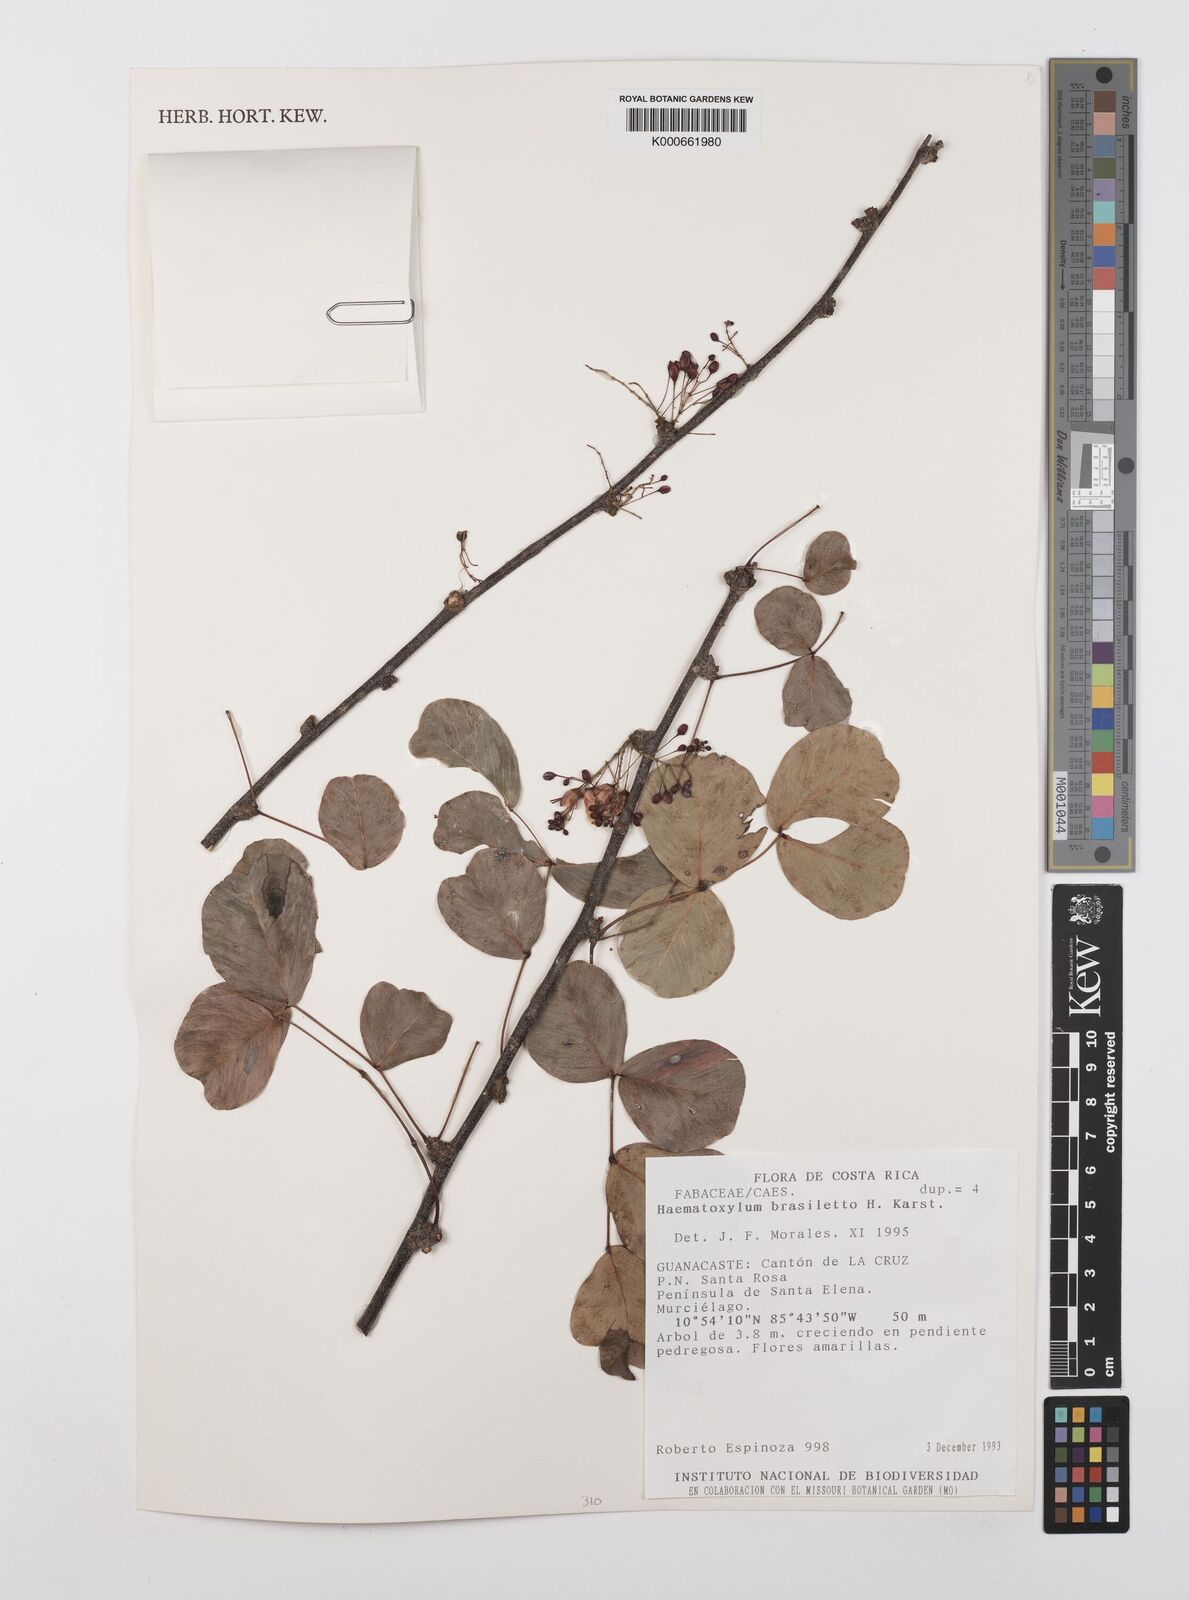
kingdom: Plantae
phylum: Tracheophyta
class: Magnoliopsida
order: Fabales
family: Fabaceae
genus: Haematoxylum
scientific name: Haematoxylum brasiletto
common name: Peachwood
